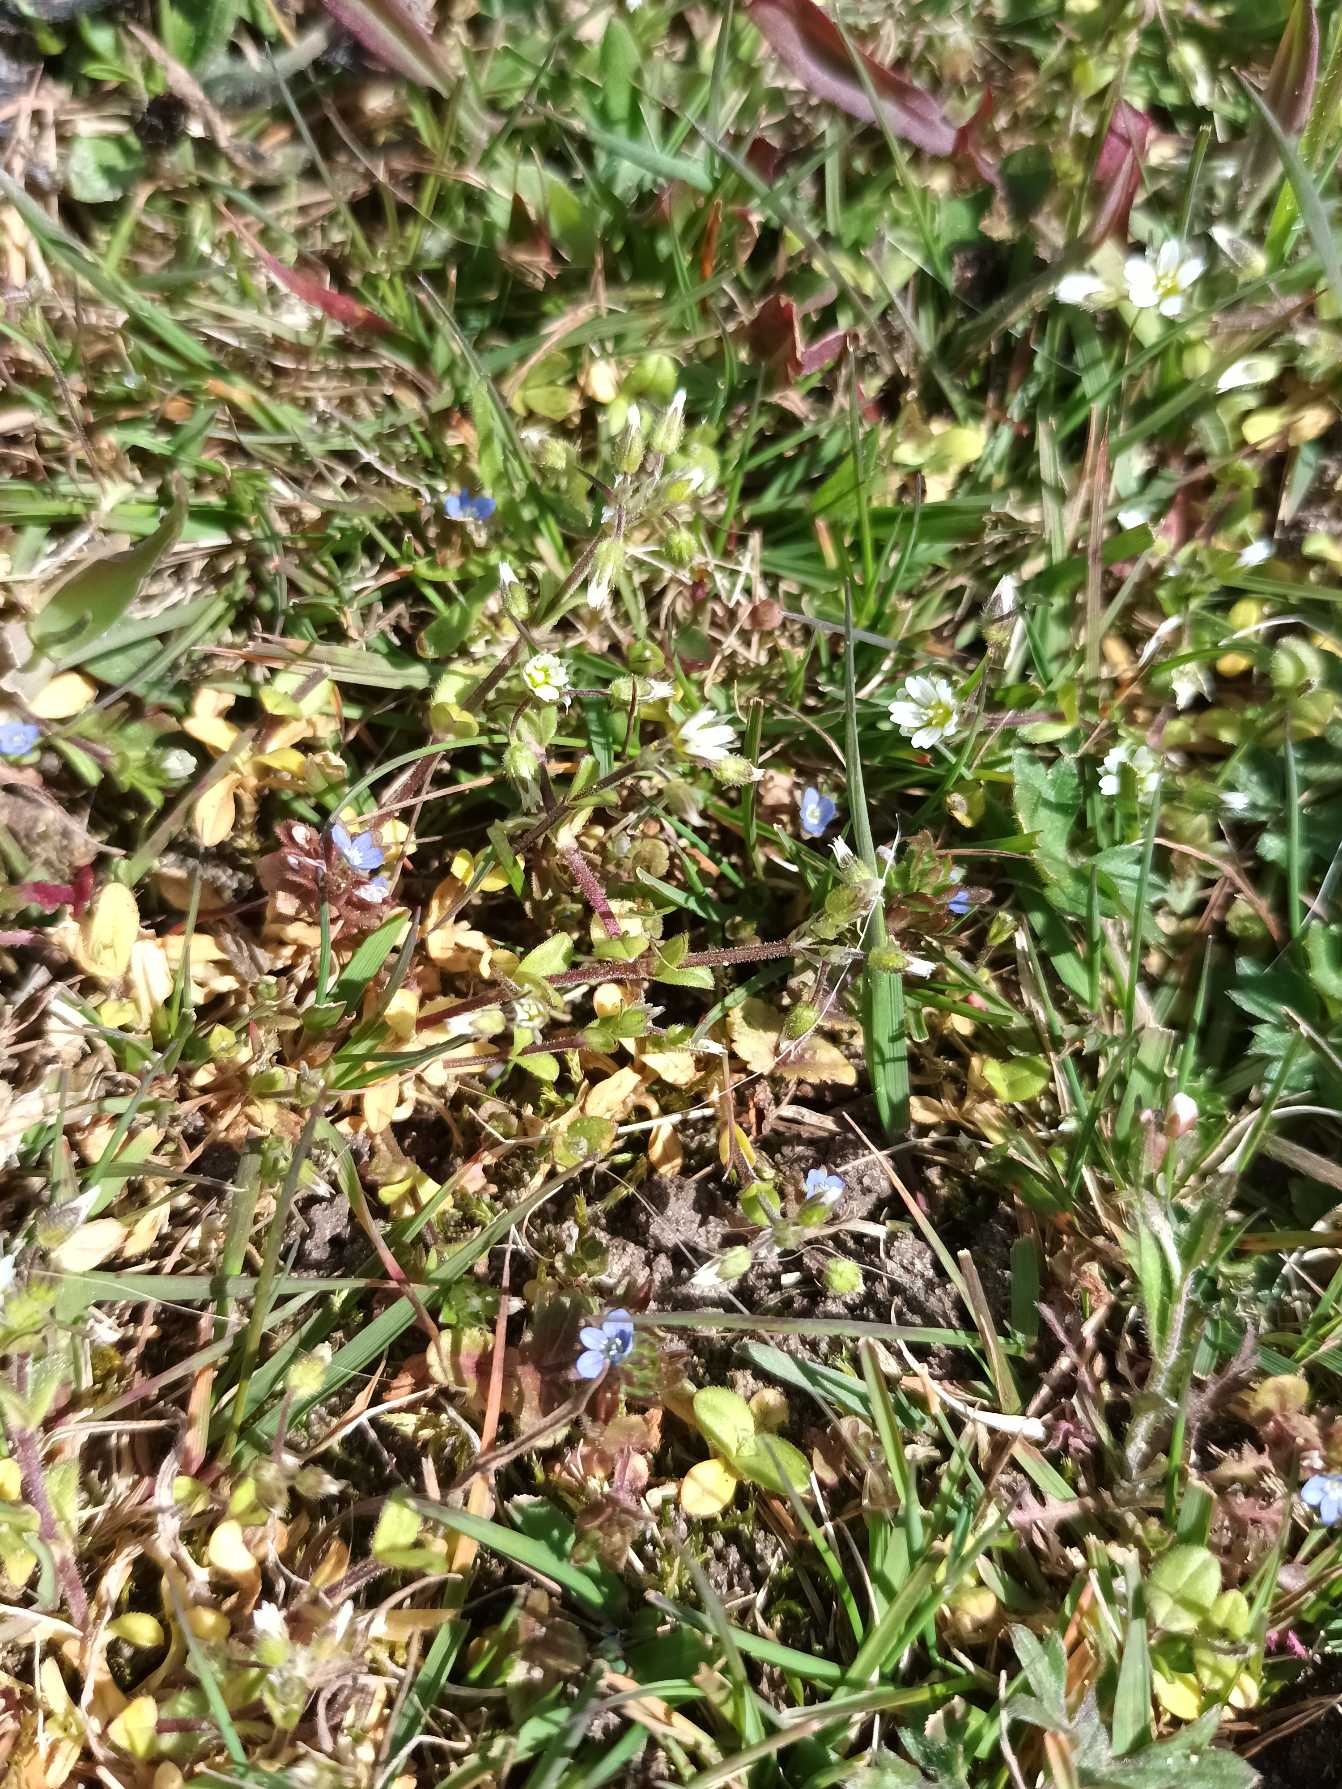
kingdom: Plantae
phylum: Tracheophyta
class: Magnoliopsida
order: Lamiales
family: Plantaginaceae
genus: Veronica
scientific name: Veronica arvensis
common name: Mark-ærenpris
